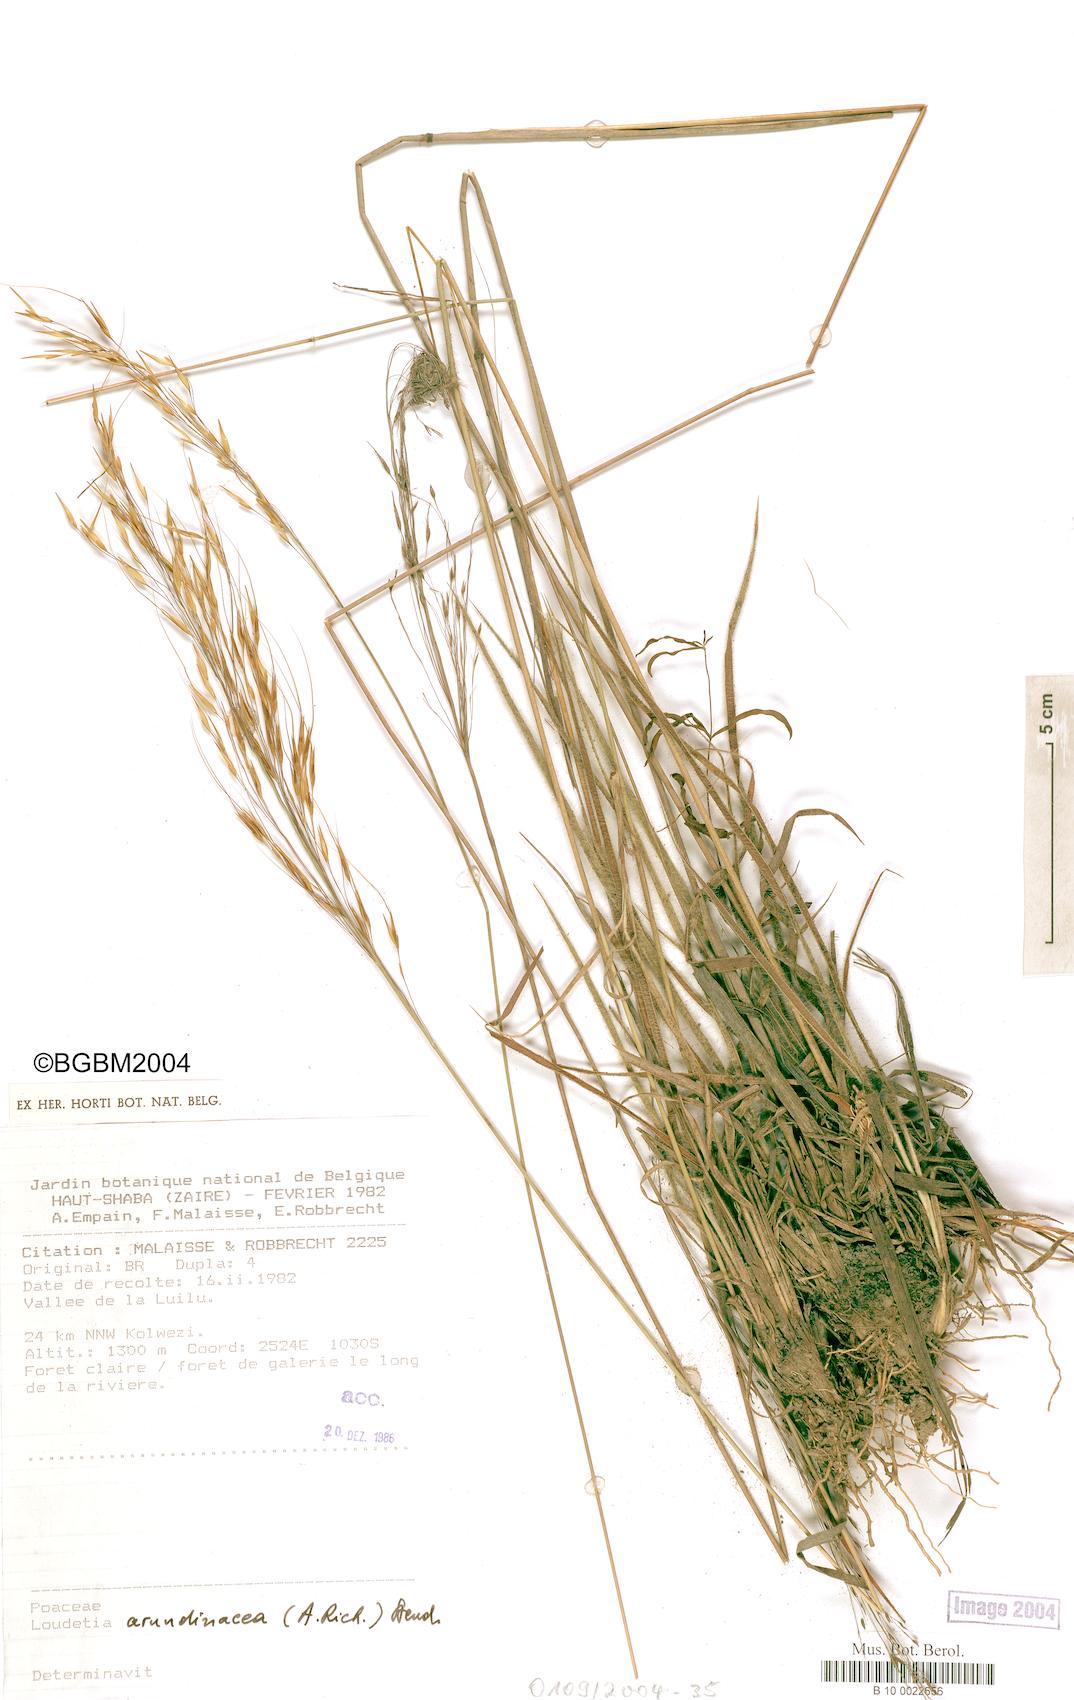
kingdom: Plantae
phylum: Tracheophyta
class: Liliopsida
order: Poales
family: Poaceae
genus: Loudetia
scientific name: Loudetia arundinacea
